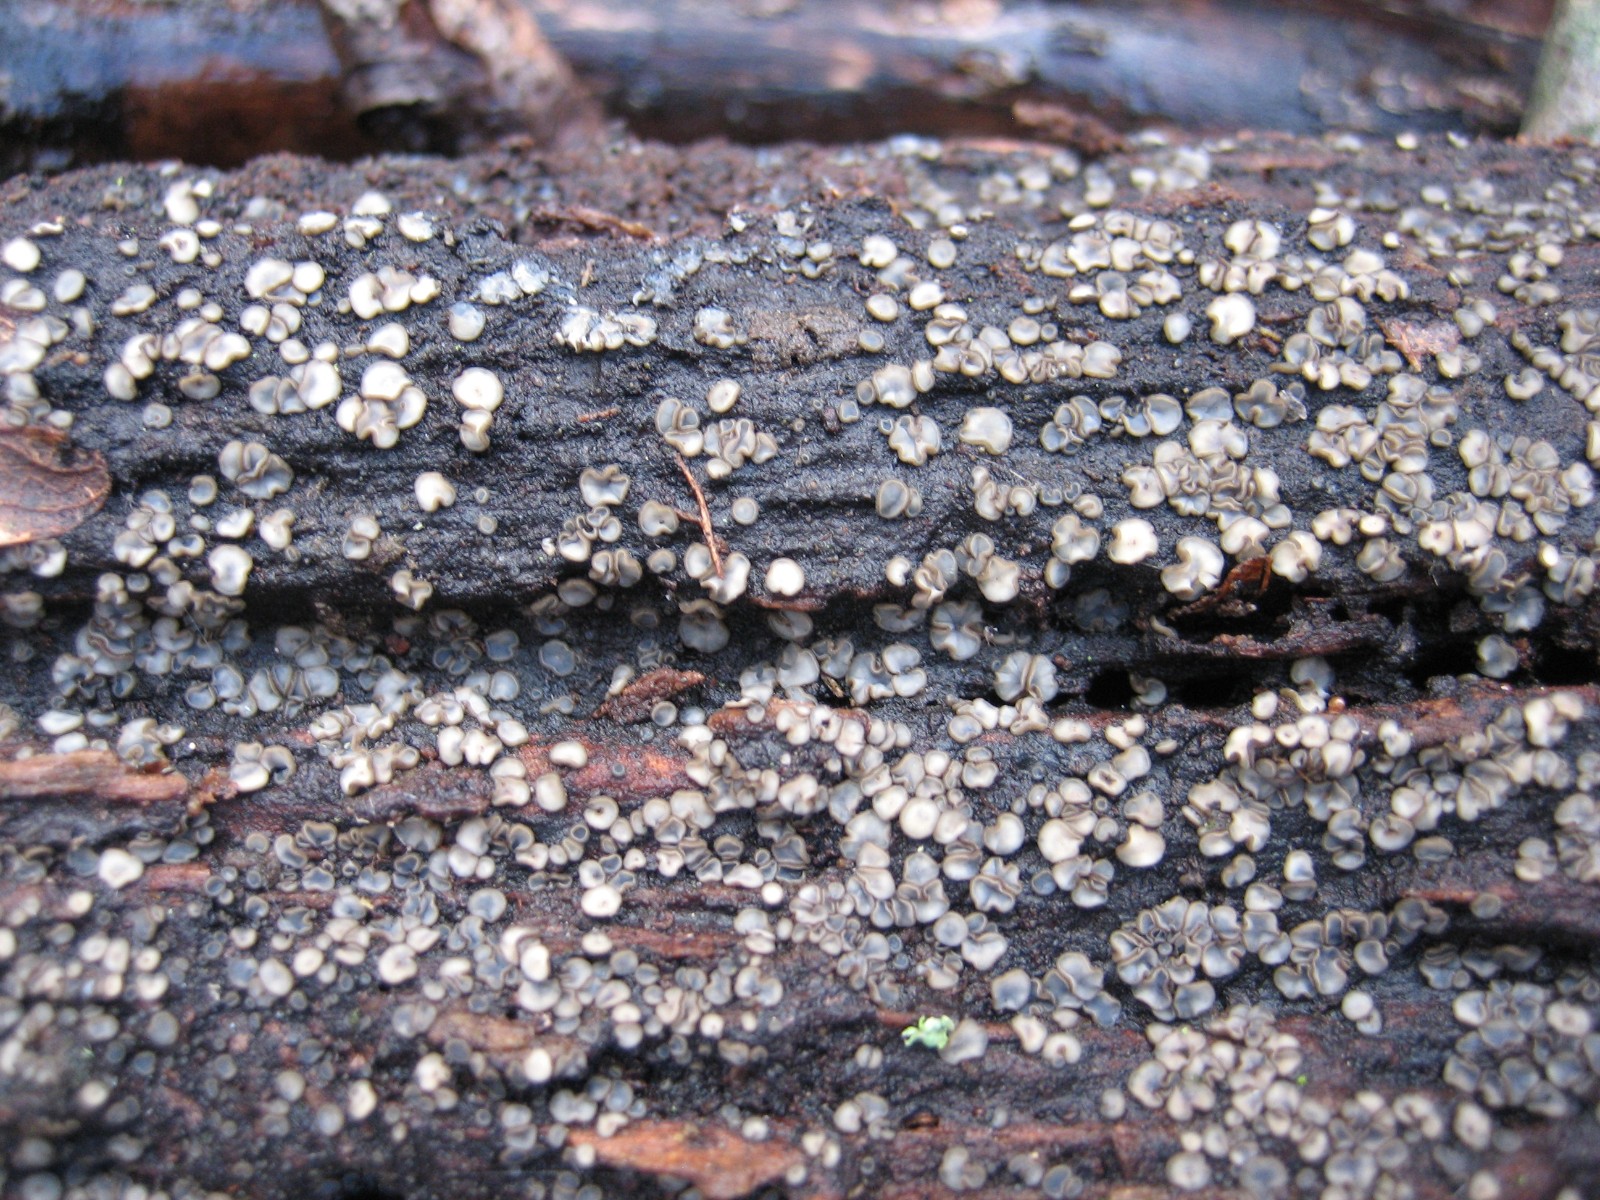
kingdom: Fungi
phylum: Ascomycota
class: Leotiomycetes
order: Helotiales
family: Mollisiaceae
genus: Mollisia
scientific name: Mollisia
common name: gråskive
